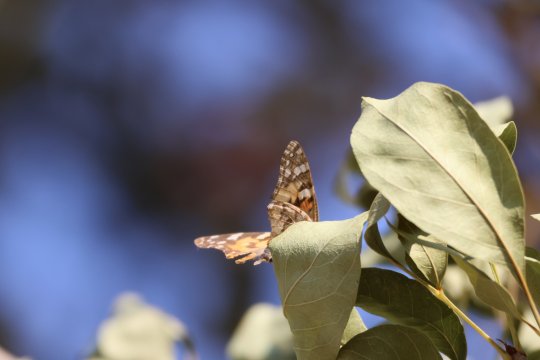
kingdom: Animalia
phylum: Arthropoda
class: Insecta
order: Lepidoptera
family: Nymphalidae
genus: Vanessa
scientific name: Vanessa cardui
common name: Painted Lady
